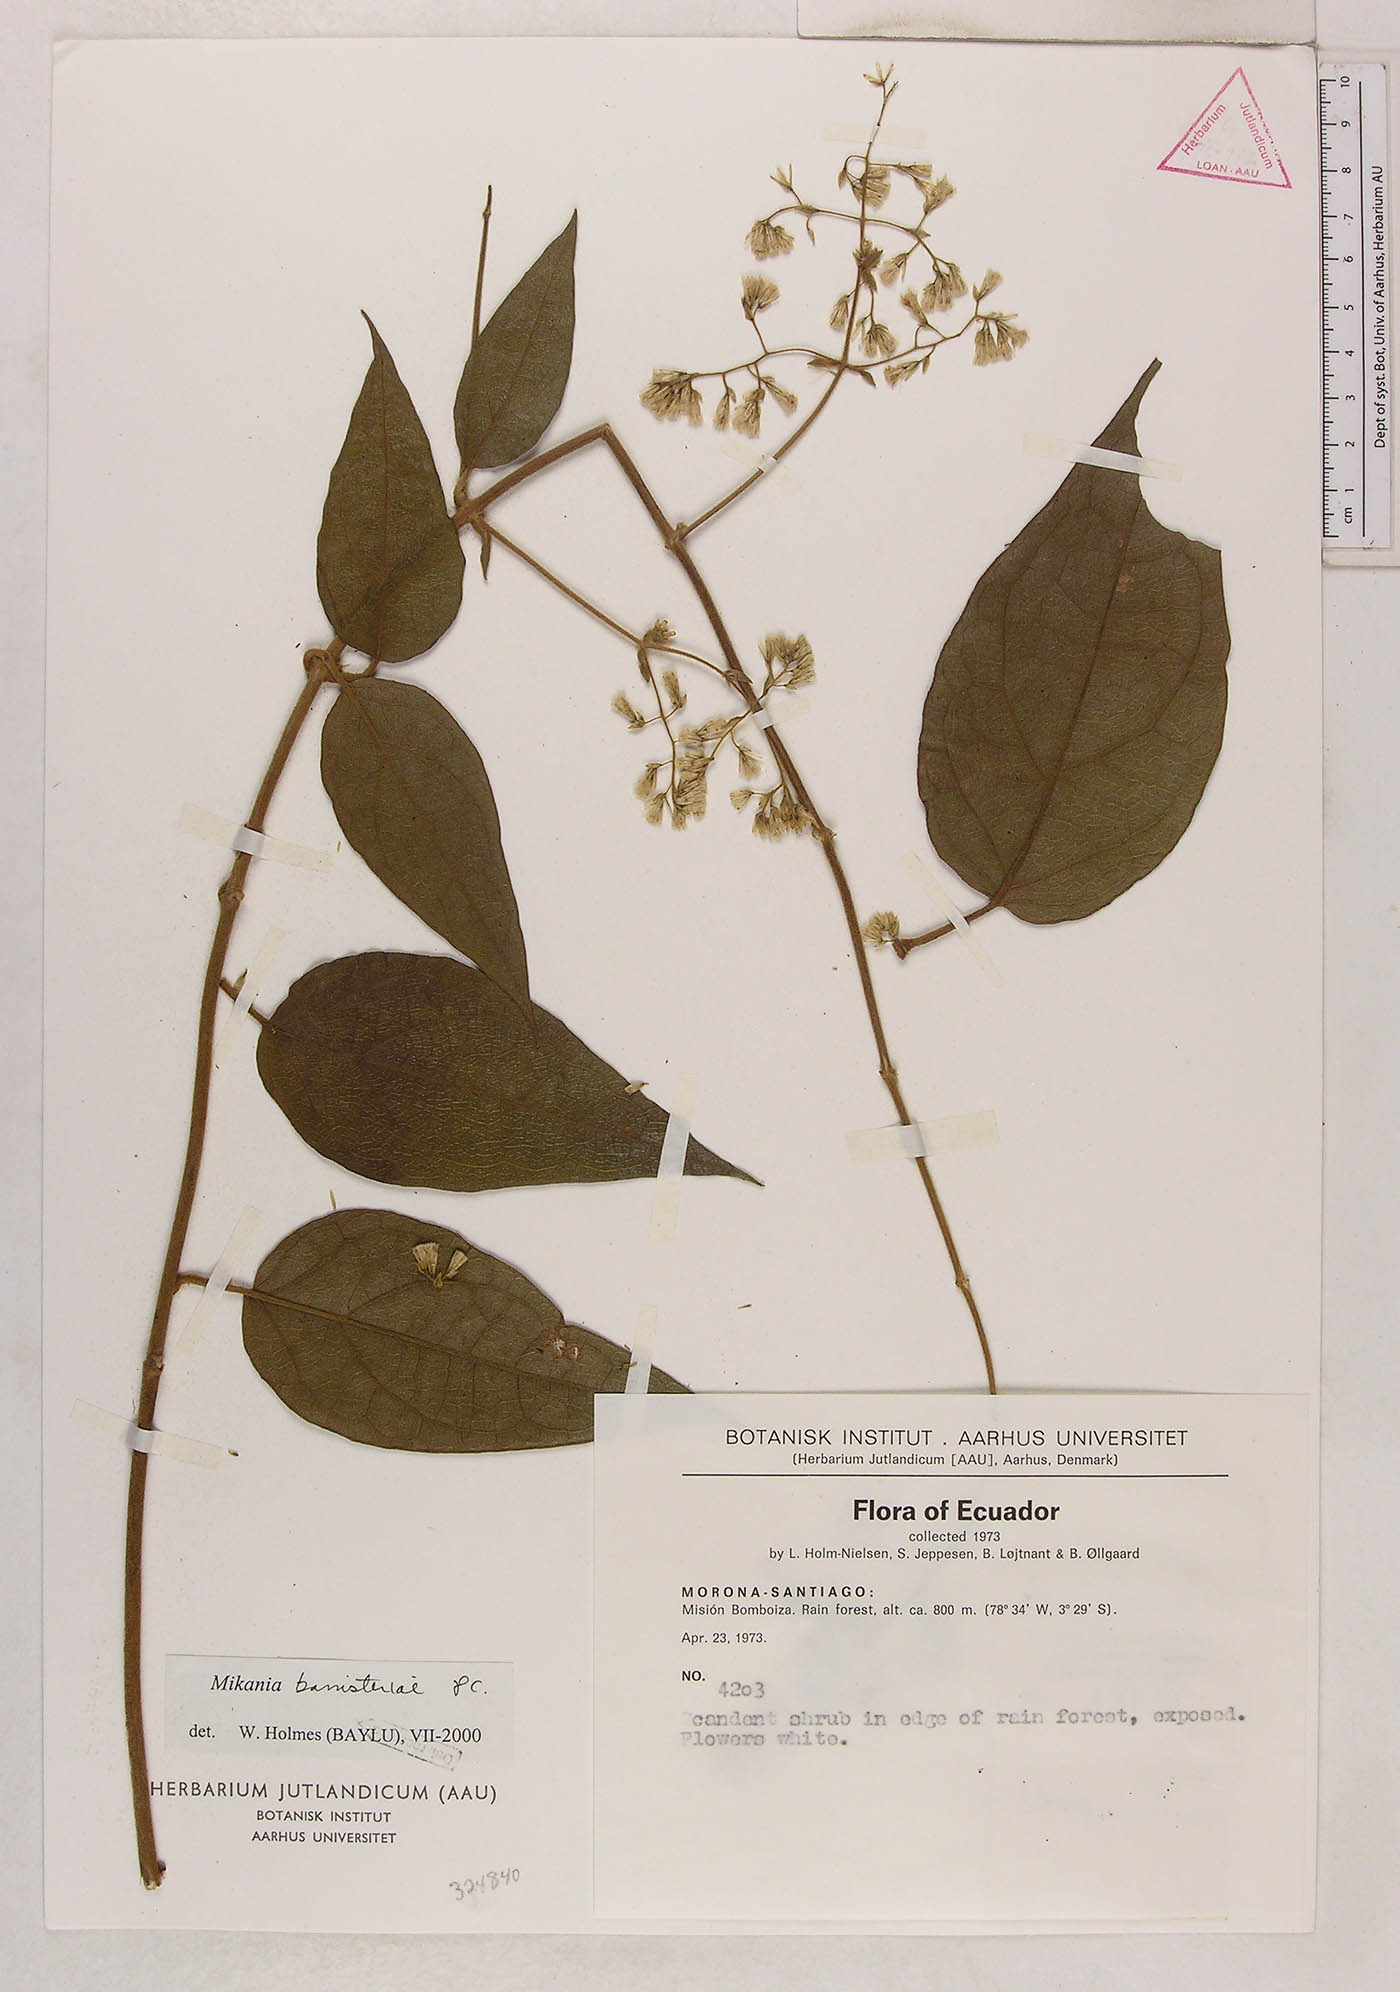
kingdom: Plantae
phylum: Tracheophyta
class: Magnoliopsida
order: Asterales
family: Asteraceae
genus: Mikania
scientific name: Mikania banisteriae
